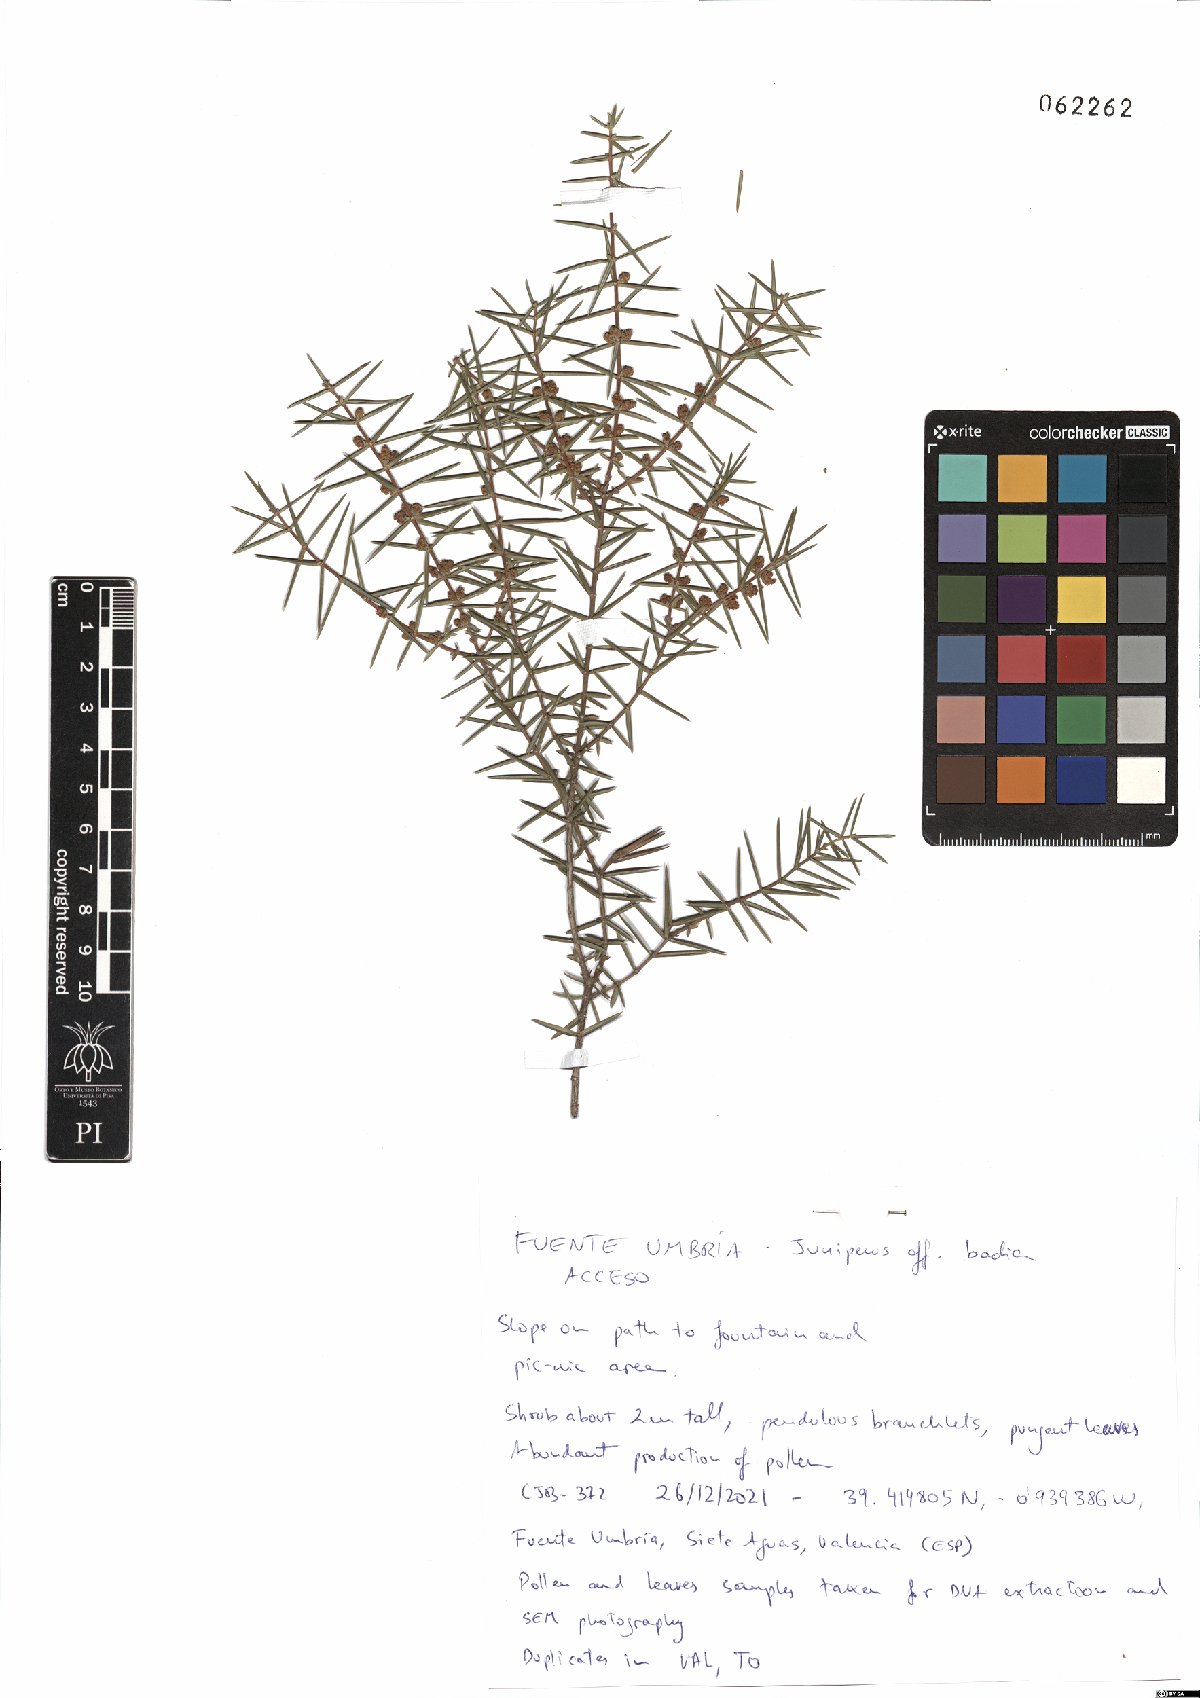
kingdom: Plantae
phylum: Tracheophyta
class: Pinopsida
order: Pinales
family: Cupressaceae
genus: Juniperus
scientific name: Juniperus oxycedrus
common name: Prickly juniper
